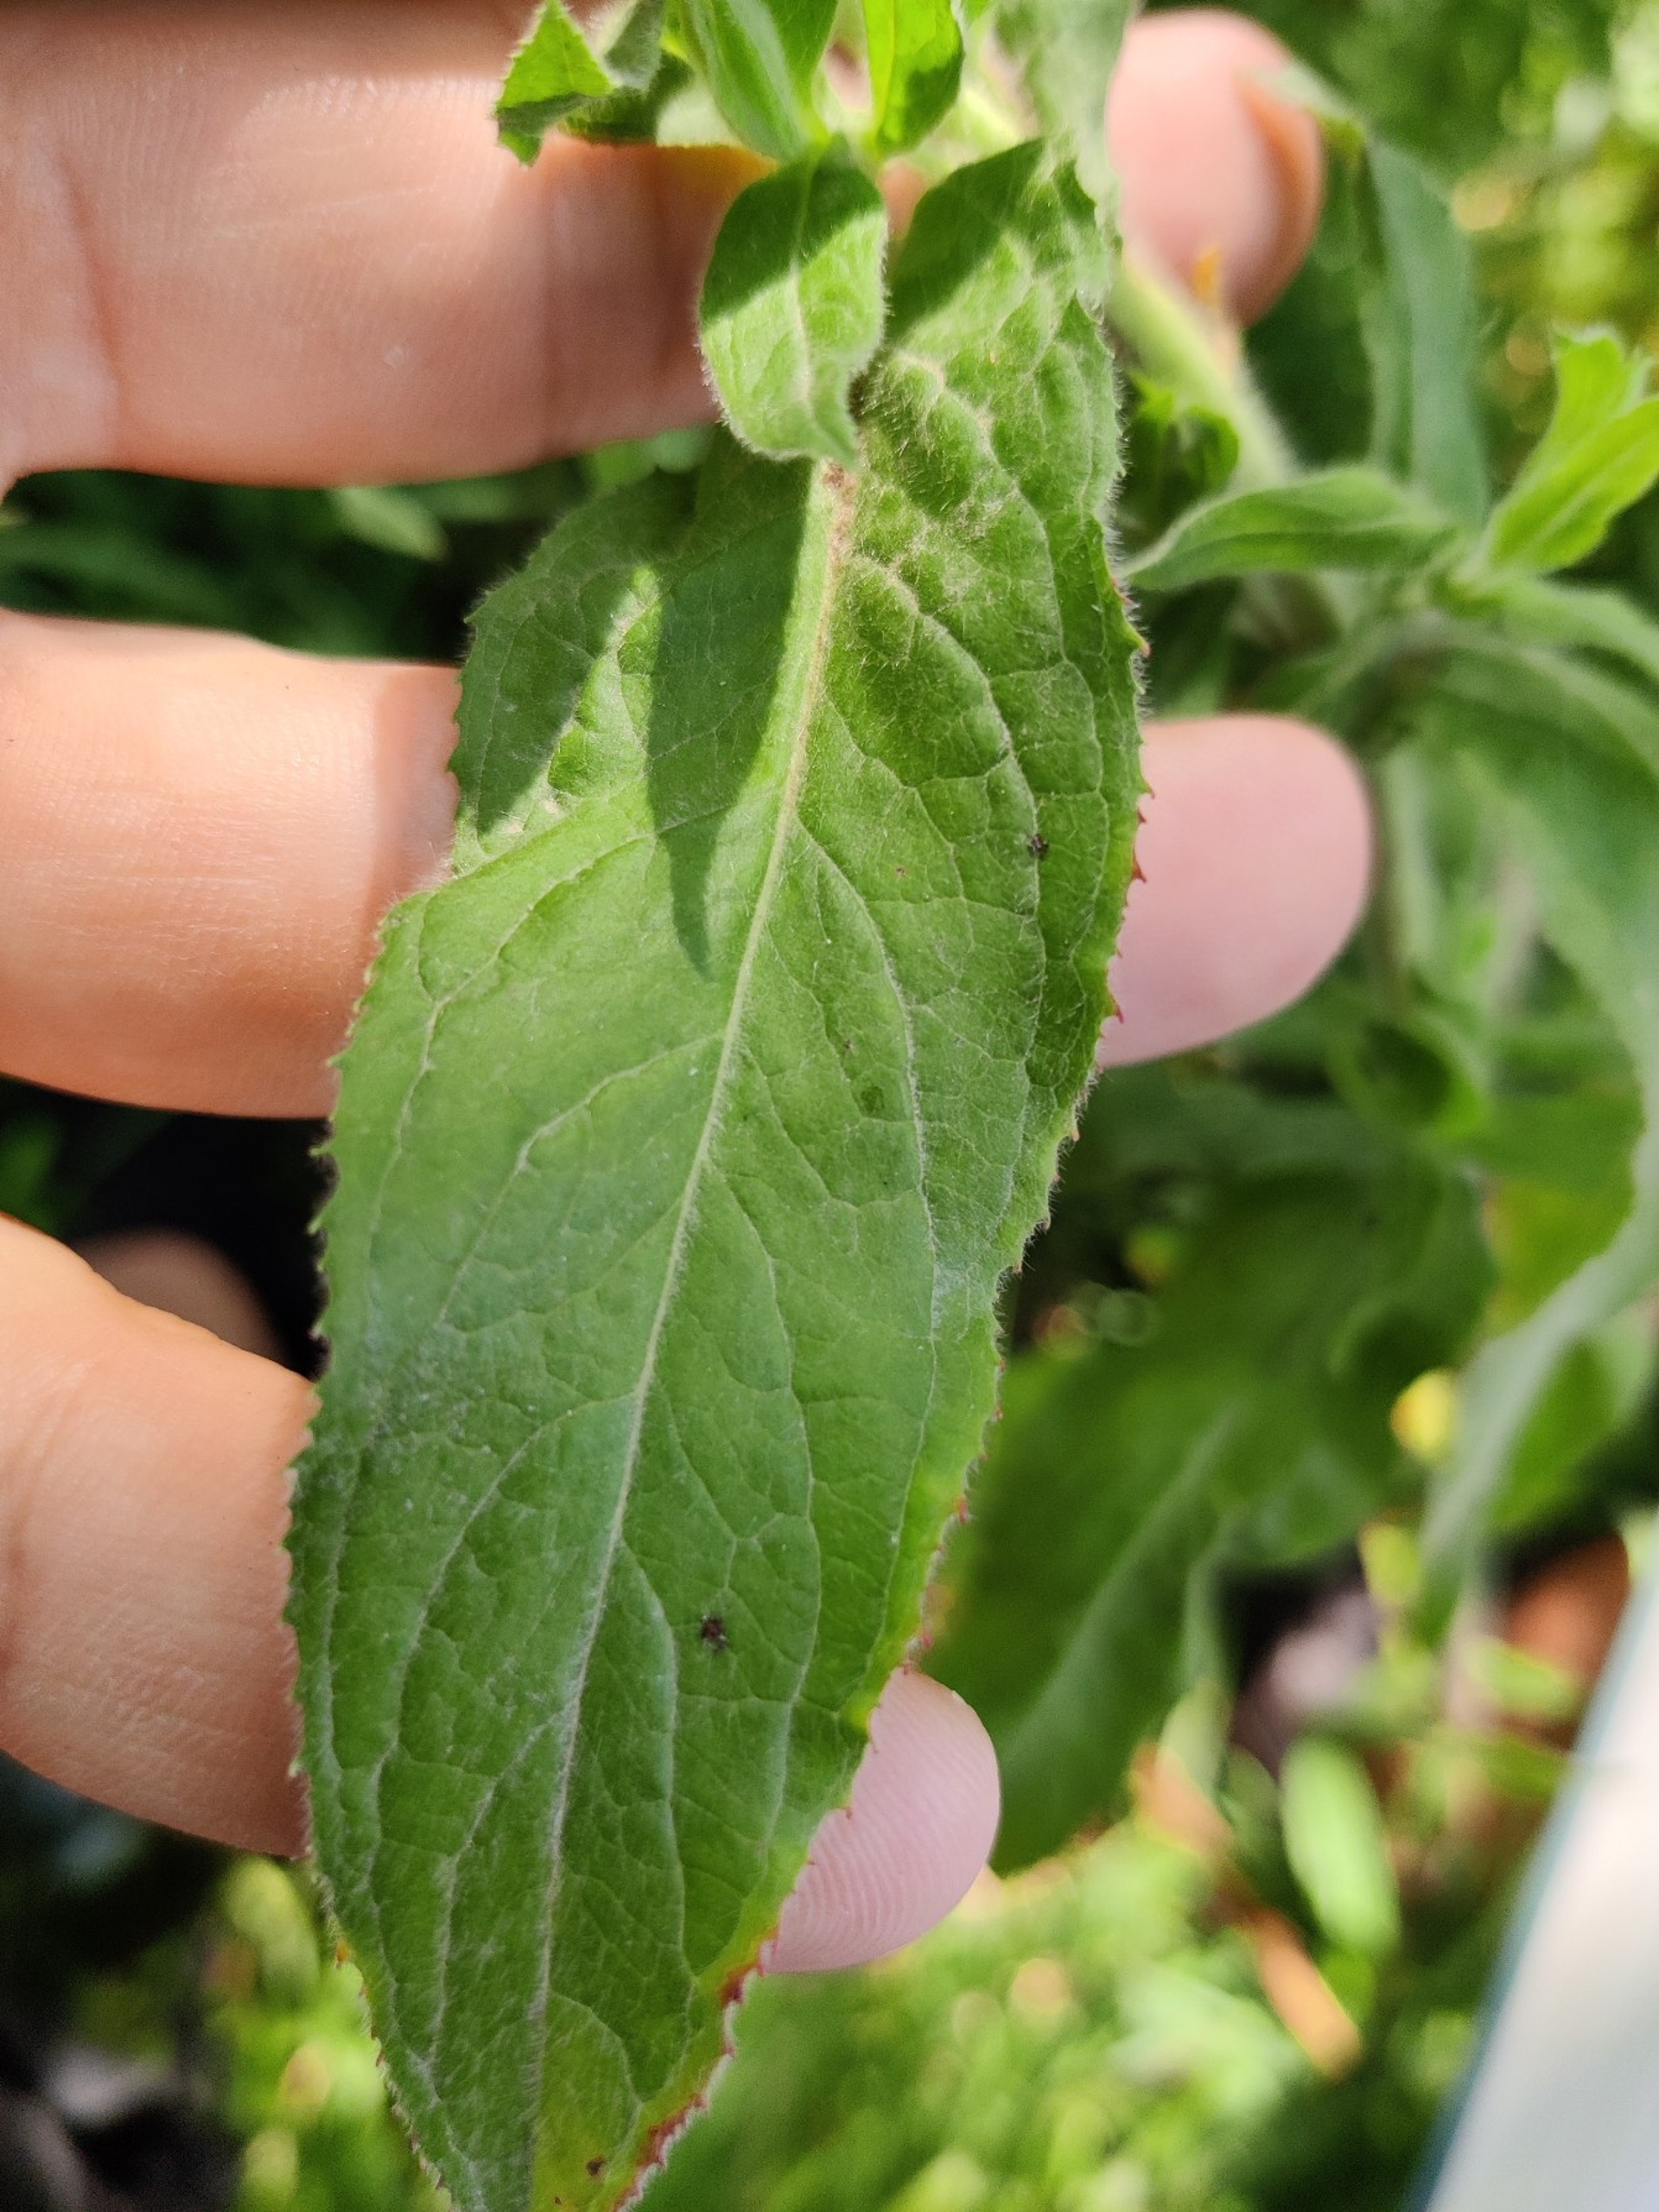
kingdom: Plantae
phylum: Tracheophyta
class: Magnoliopsida
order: Myrtales
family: Onagraceae
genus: Epilobium
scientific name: Epilobium hirsutum
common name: Lådden dueurt
